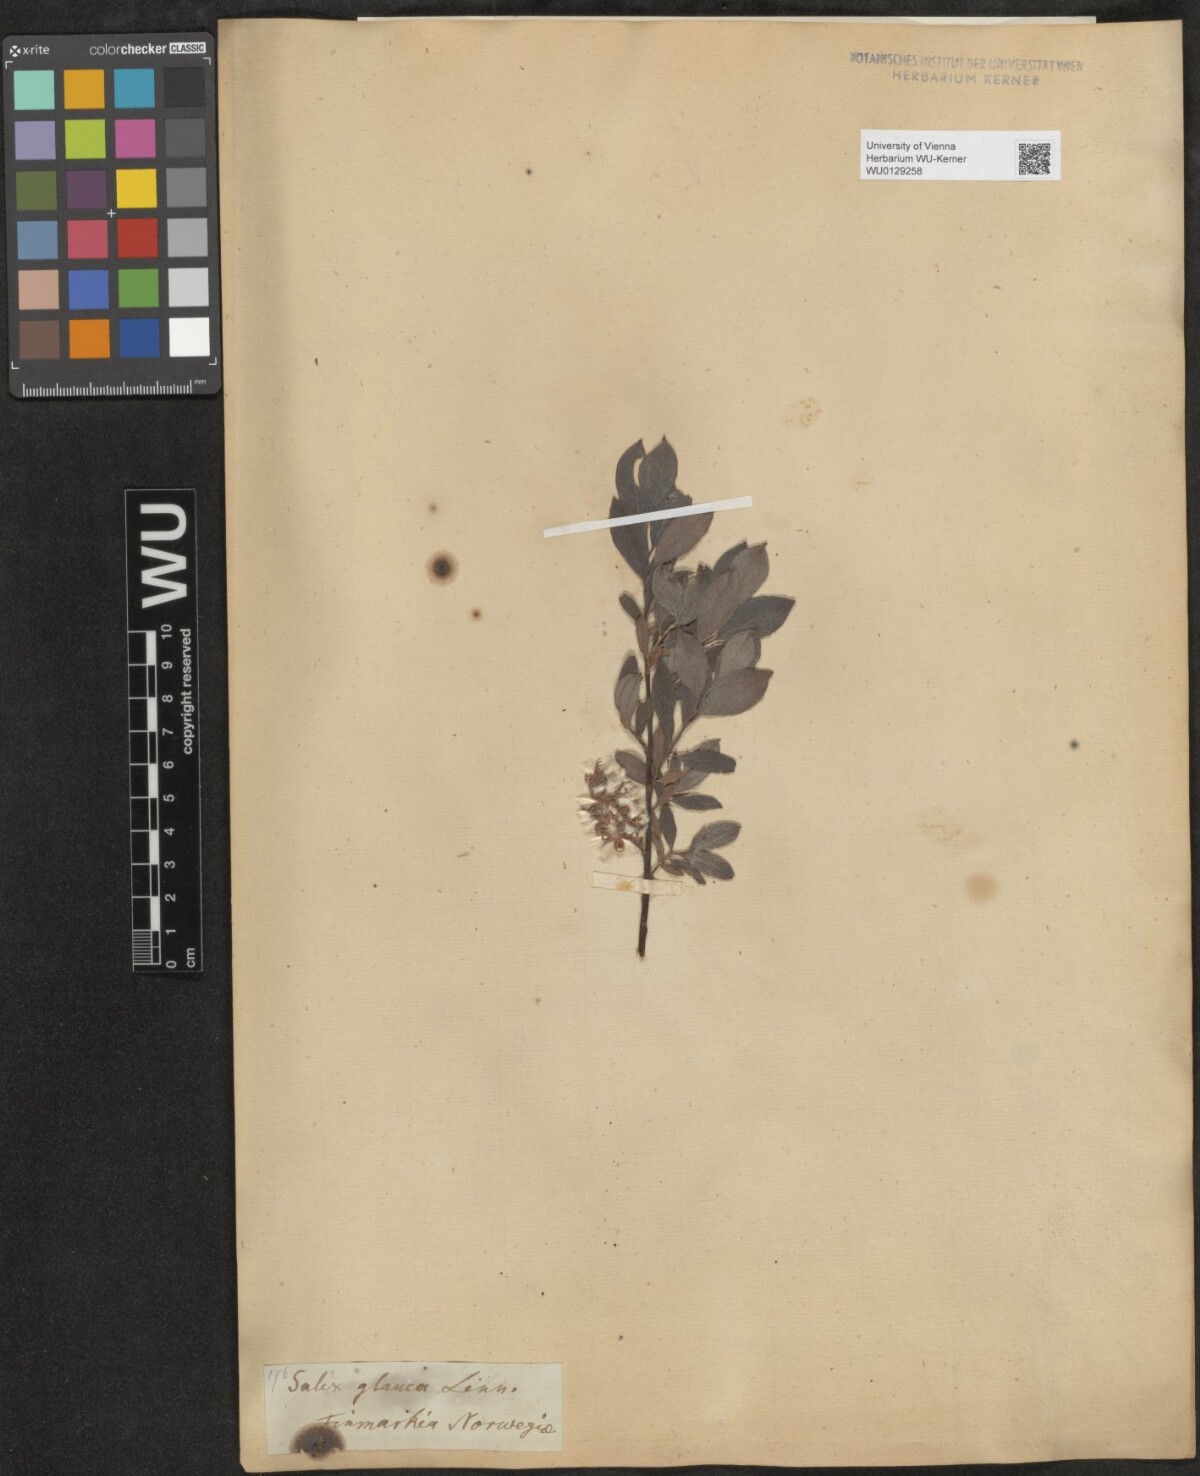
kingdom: Plantae
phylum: Tracheophyta
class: Magnoliopsida
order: Malpighiales
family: Salicaceae
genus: Salix
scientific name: Salix glauca
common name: Glaucous willow
